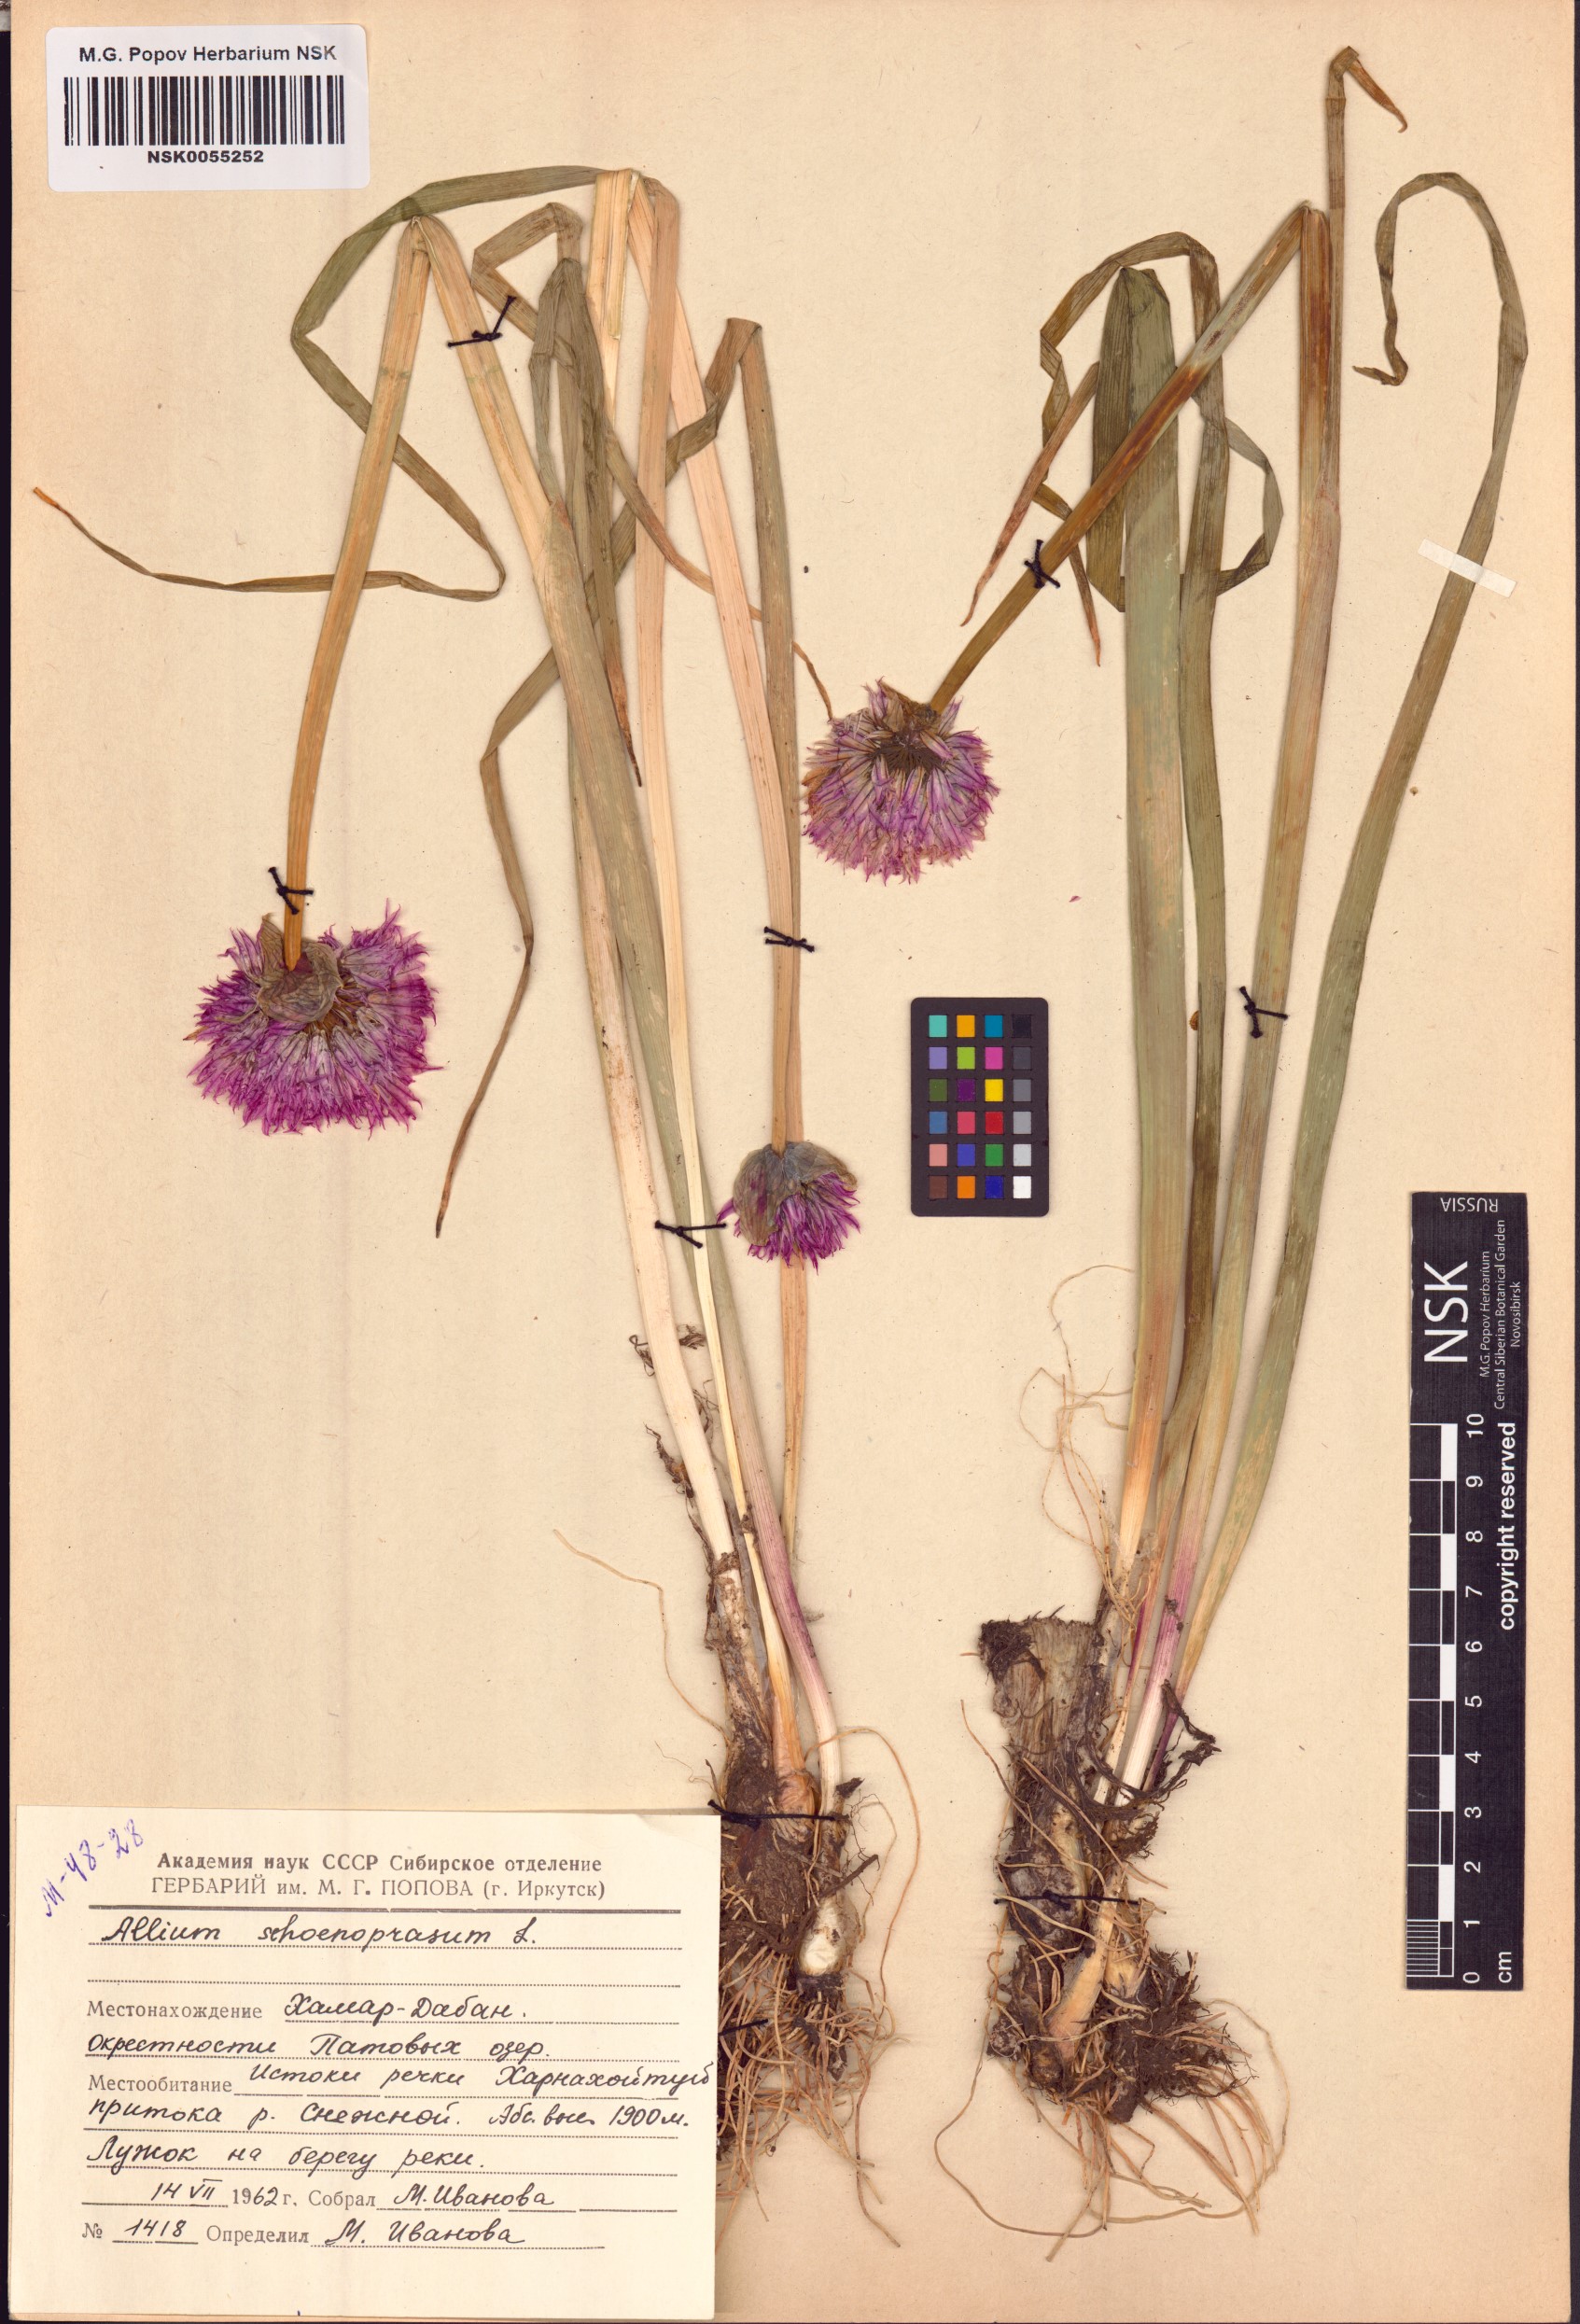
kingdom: Plantae
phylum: Tracheophyta
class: Liliopsida
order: Asparagales
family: Amaryllidaceae
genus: Allium
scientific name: Allium schoenoprasum
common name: Chives
